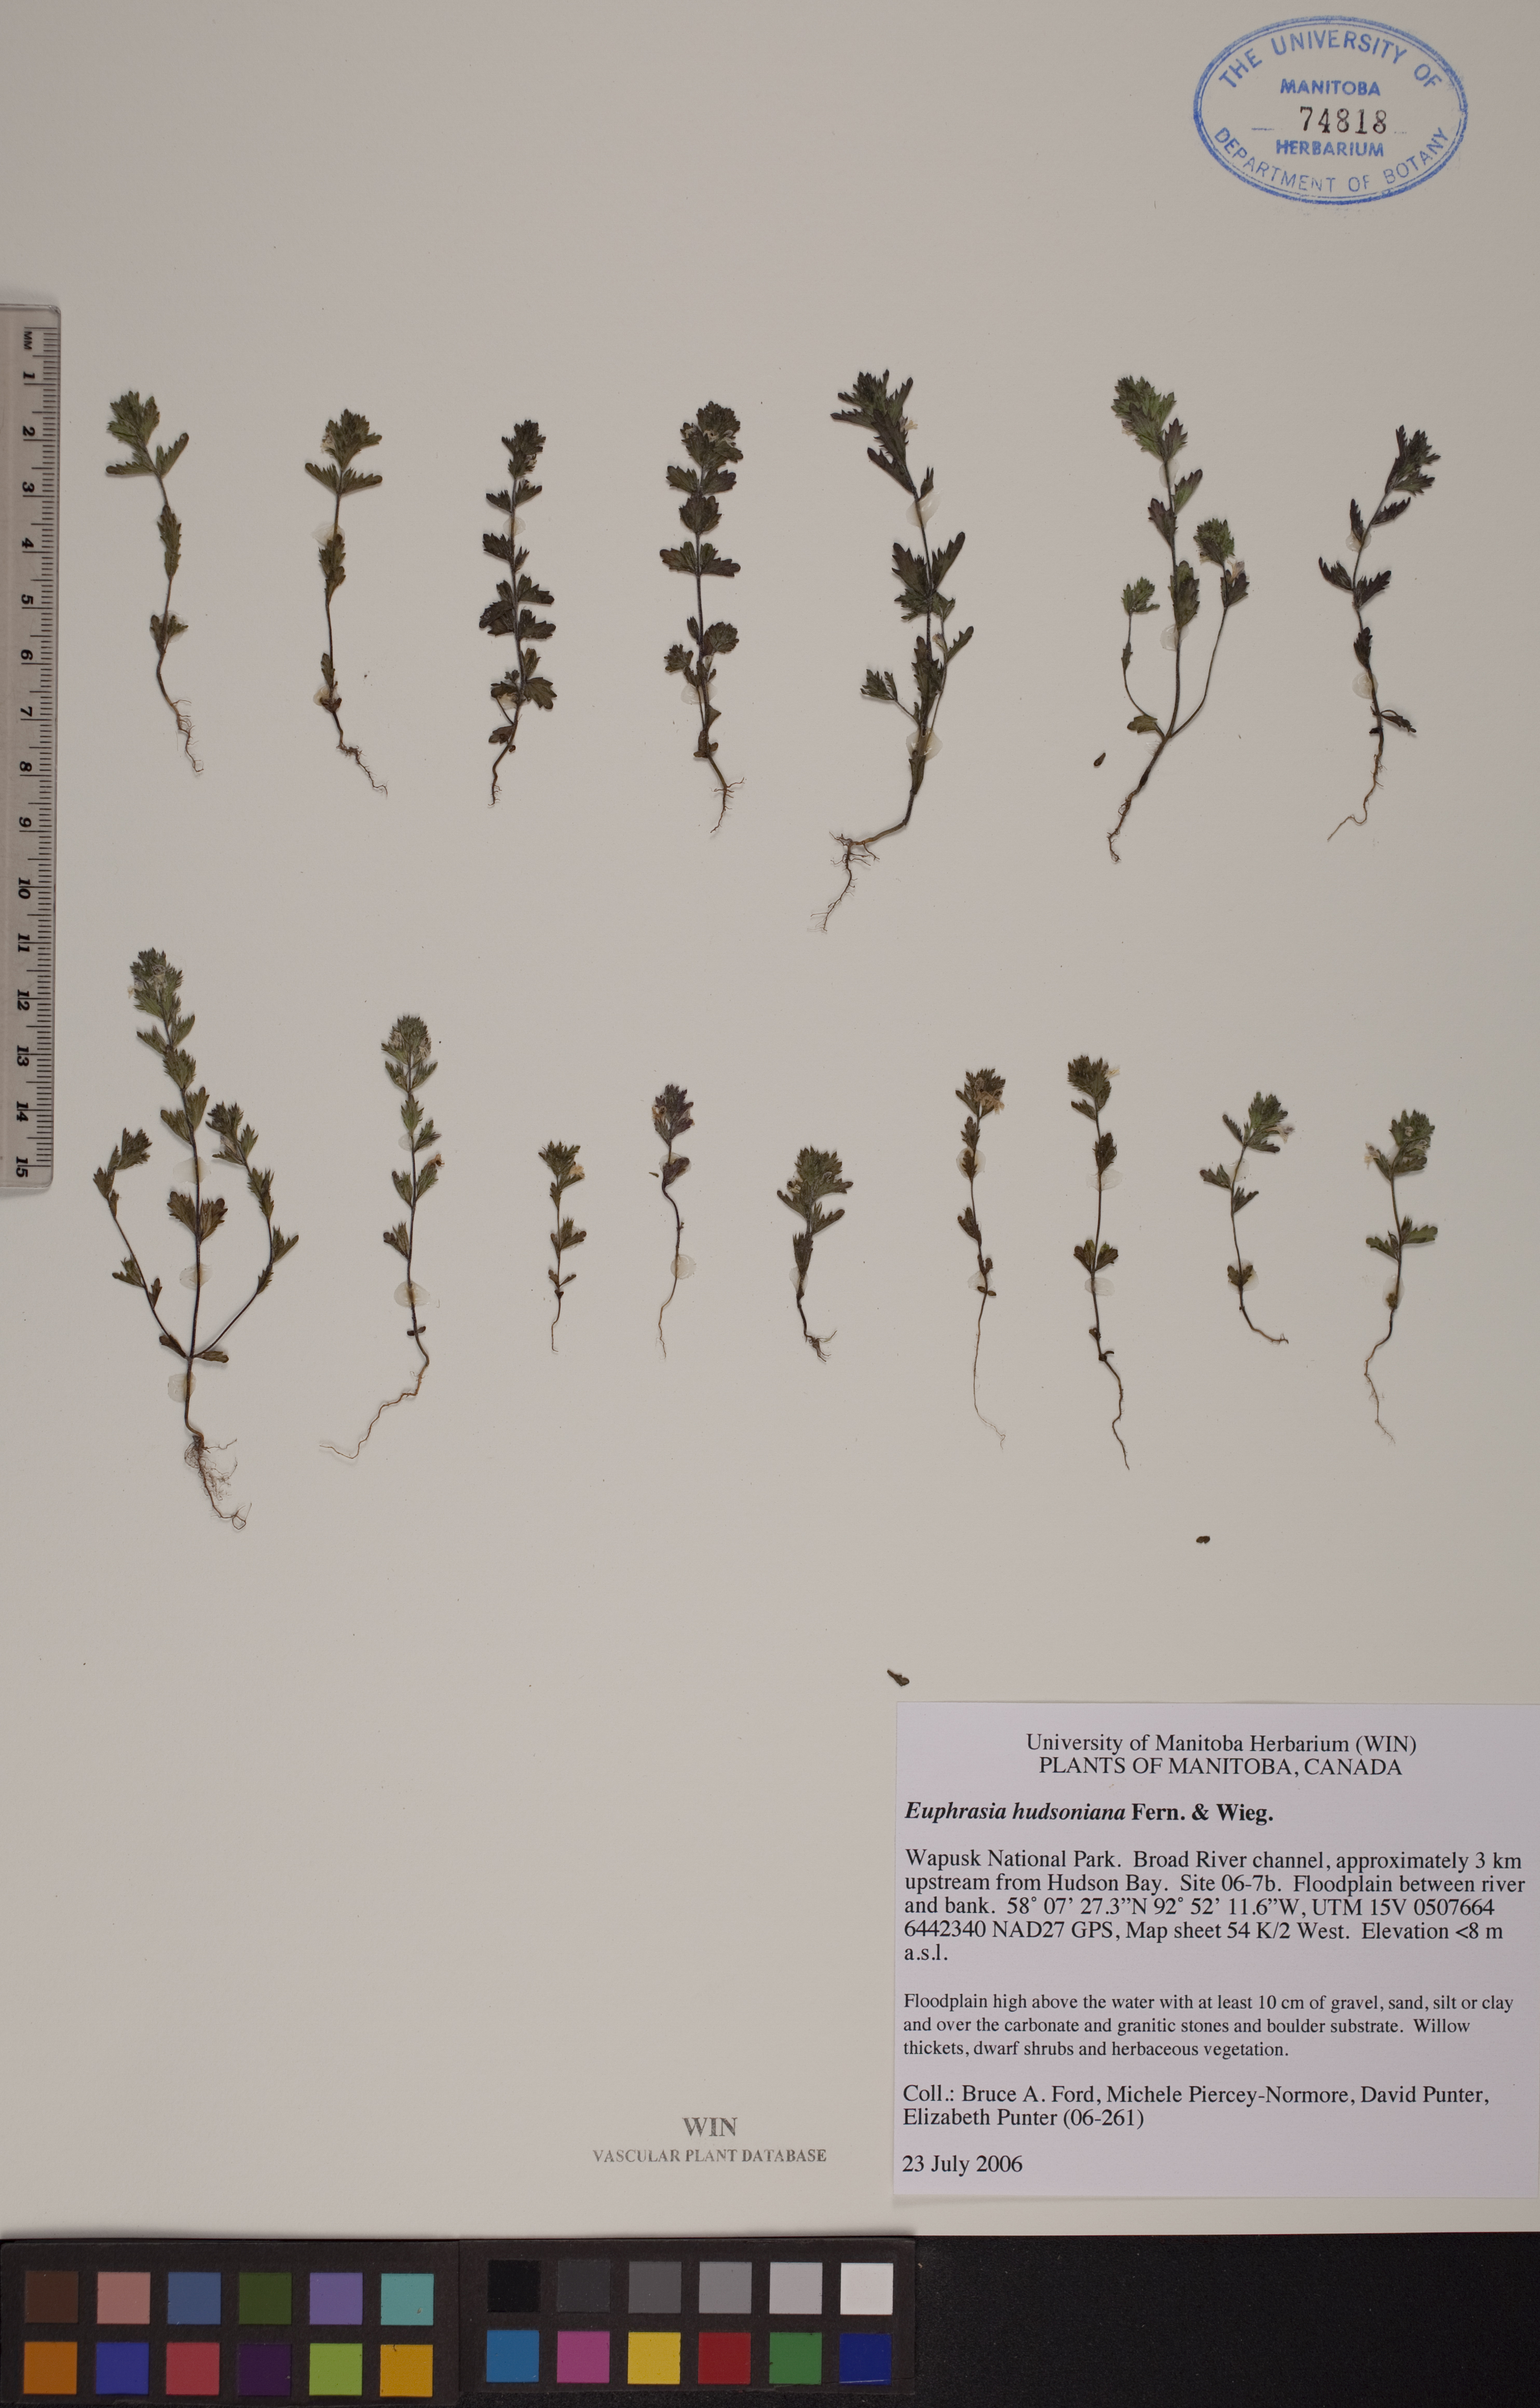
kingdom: Plantae
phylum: Tracheophyta
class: Magnoliopsida
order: Lamiales
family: Orobanchaceae
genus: Euphrasia
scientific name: Euphrasia hudsoniana
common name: Hudson bay eyebright
